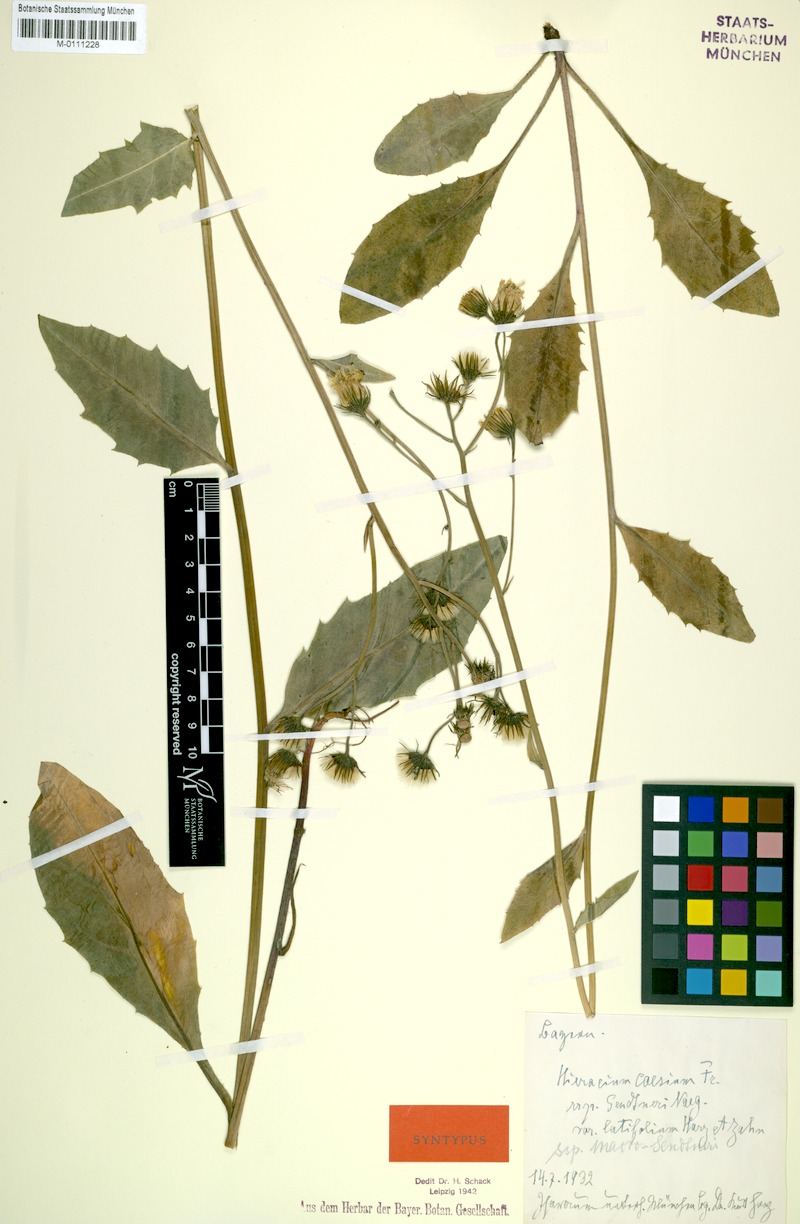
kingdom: Plantae
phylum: Tracheophyta
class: Magnoliopsida
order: Asterales
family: Asteraceae
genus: Hieracium
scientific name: Hieracium caesium
